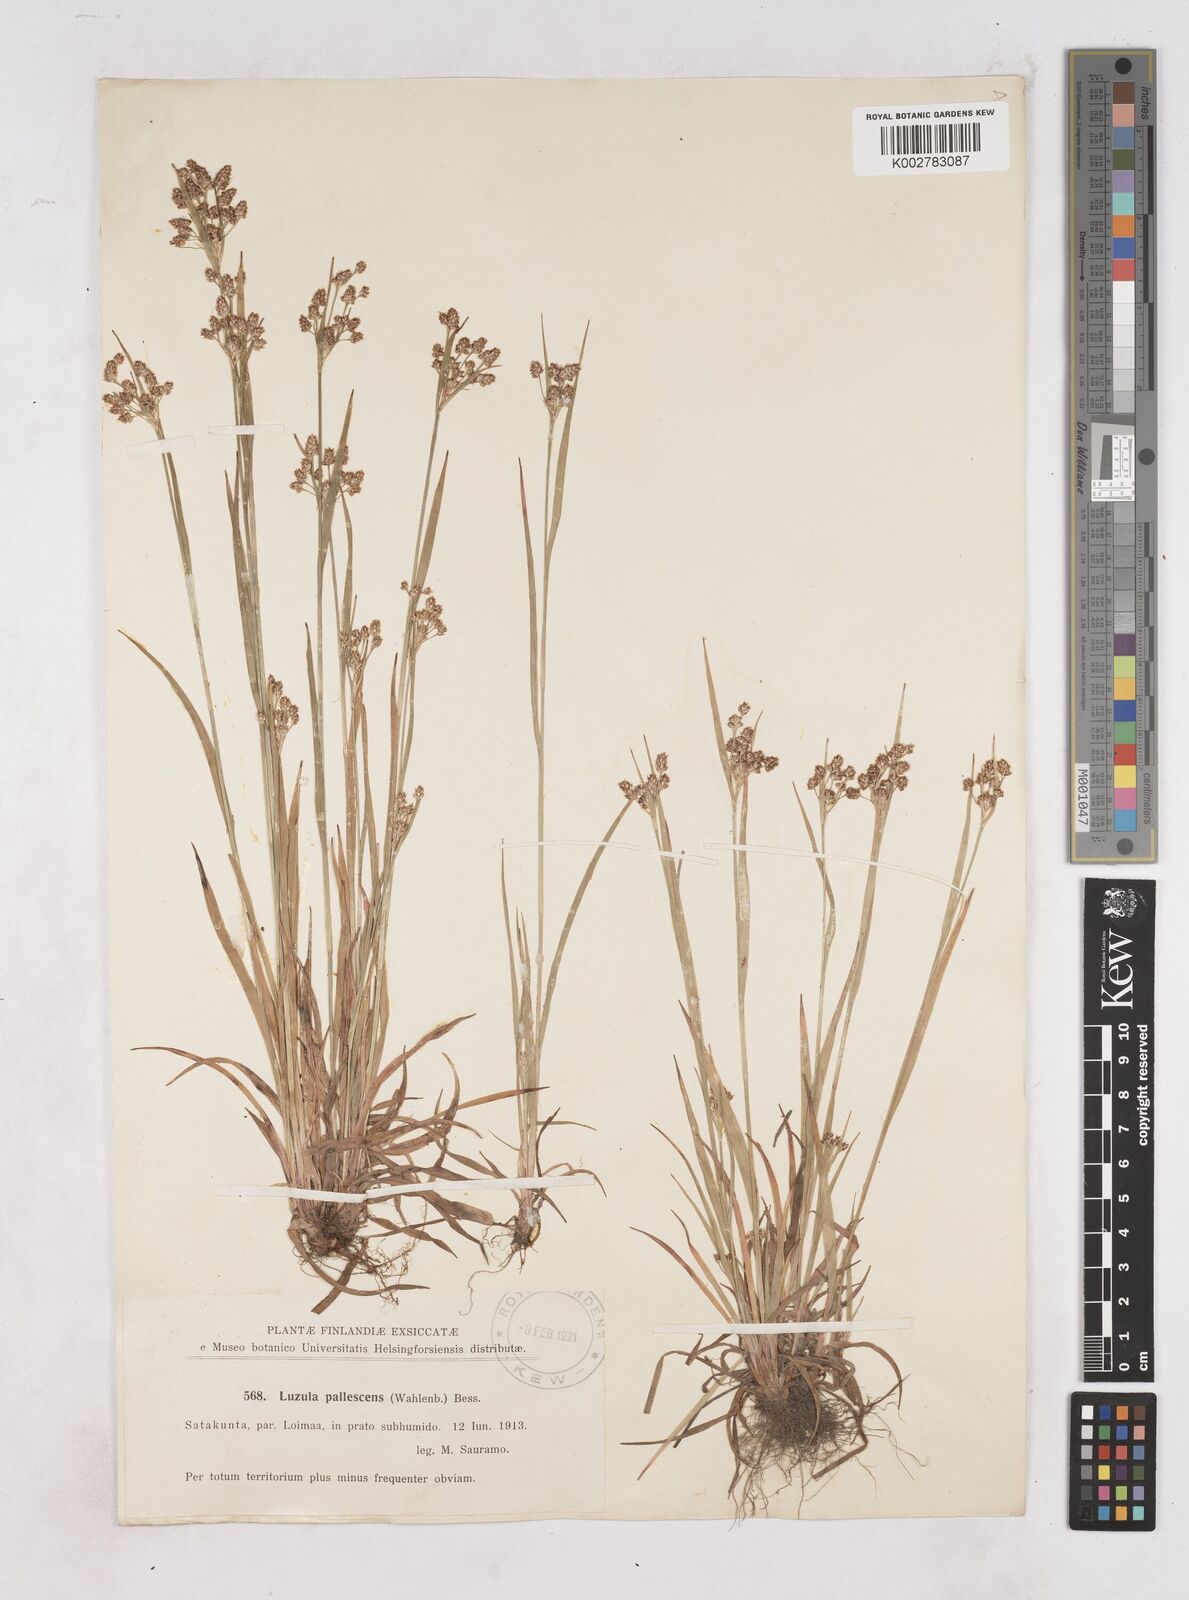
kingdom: Plantae
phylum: Tracheophyta
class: Liliopsida
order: Poales
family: Juncaceae
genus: Luzula
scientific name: Luzula pallescens
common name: Fen wood-rush
